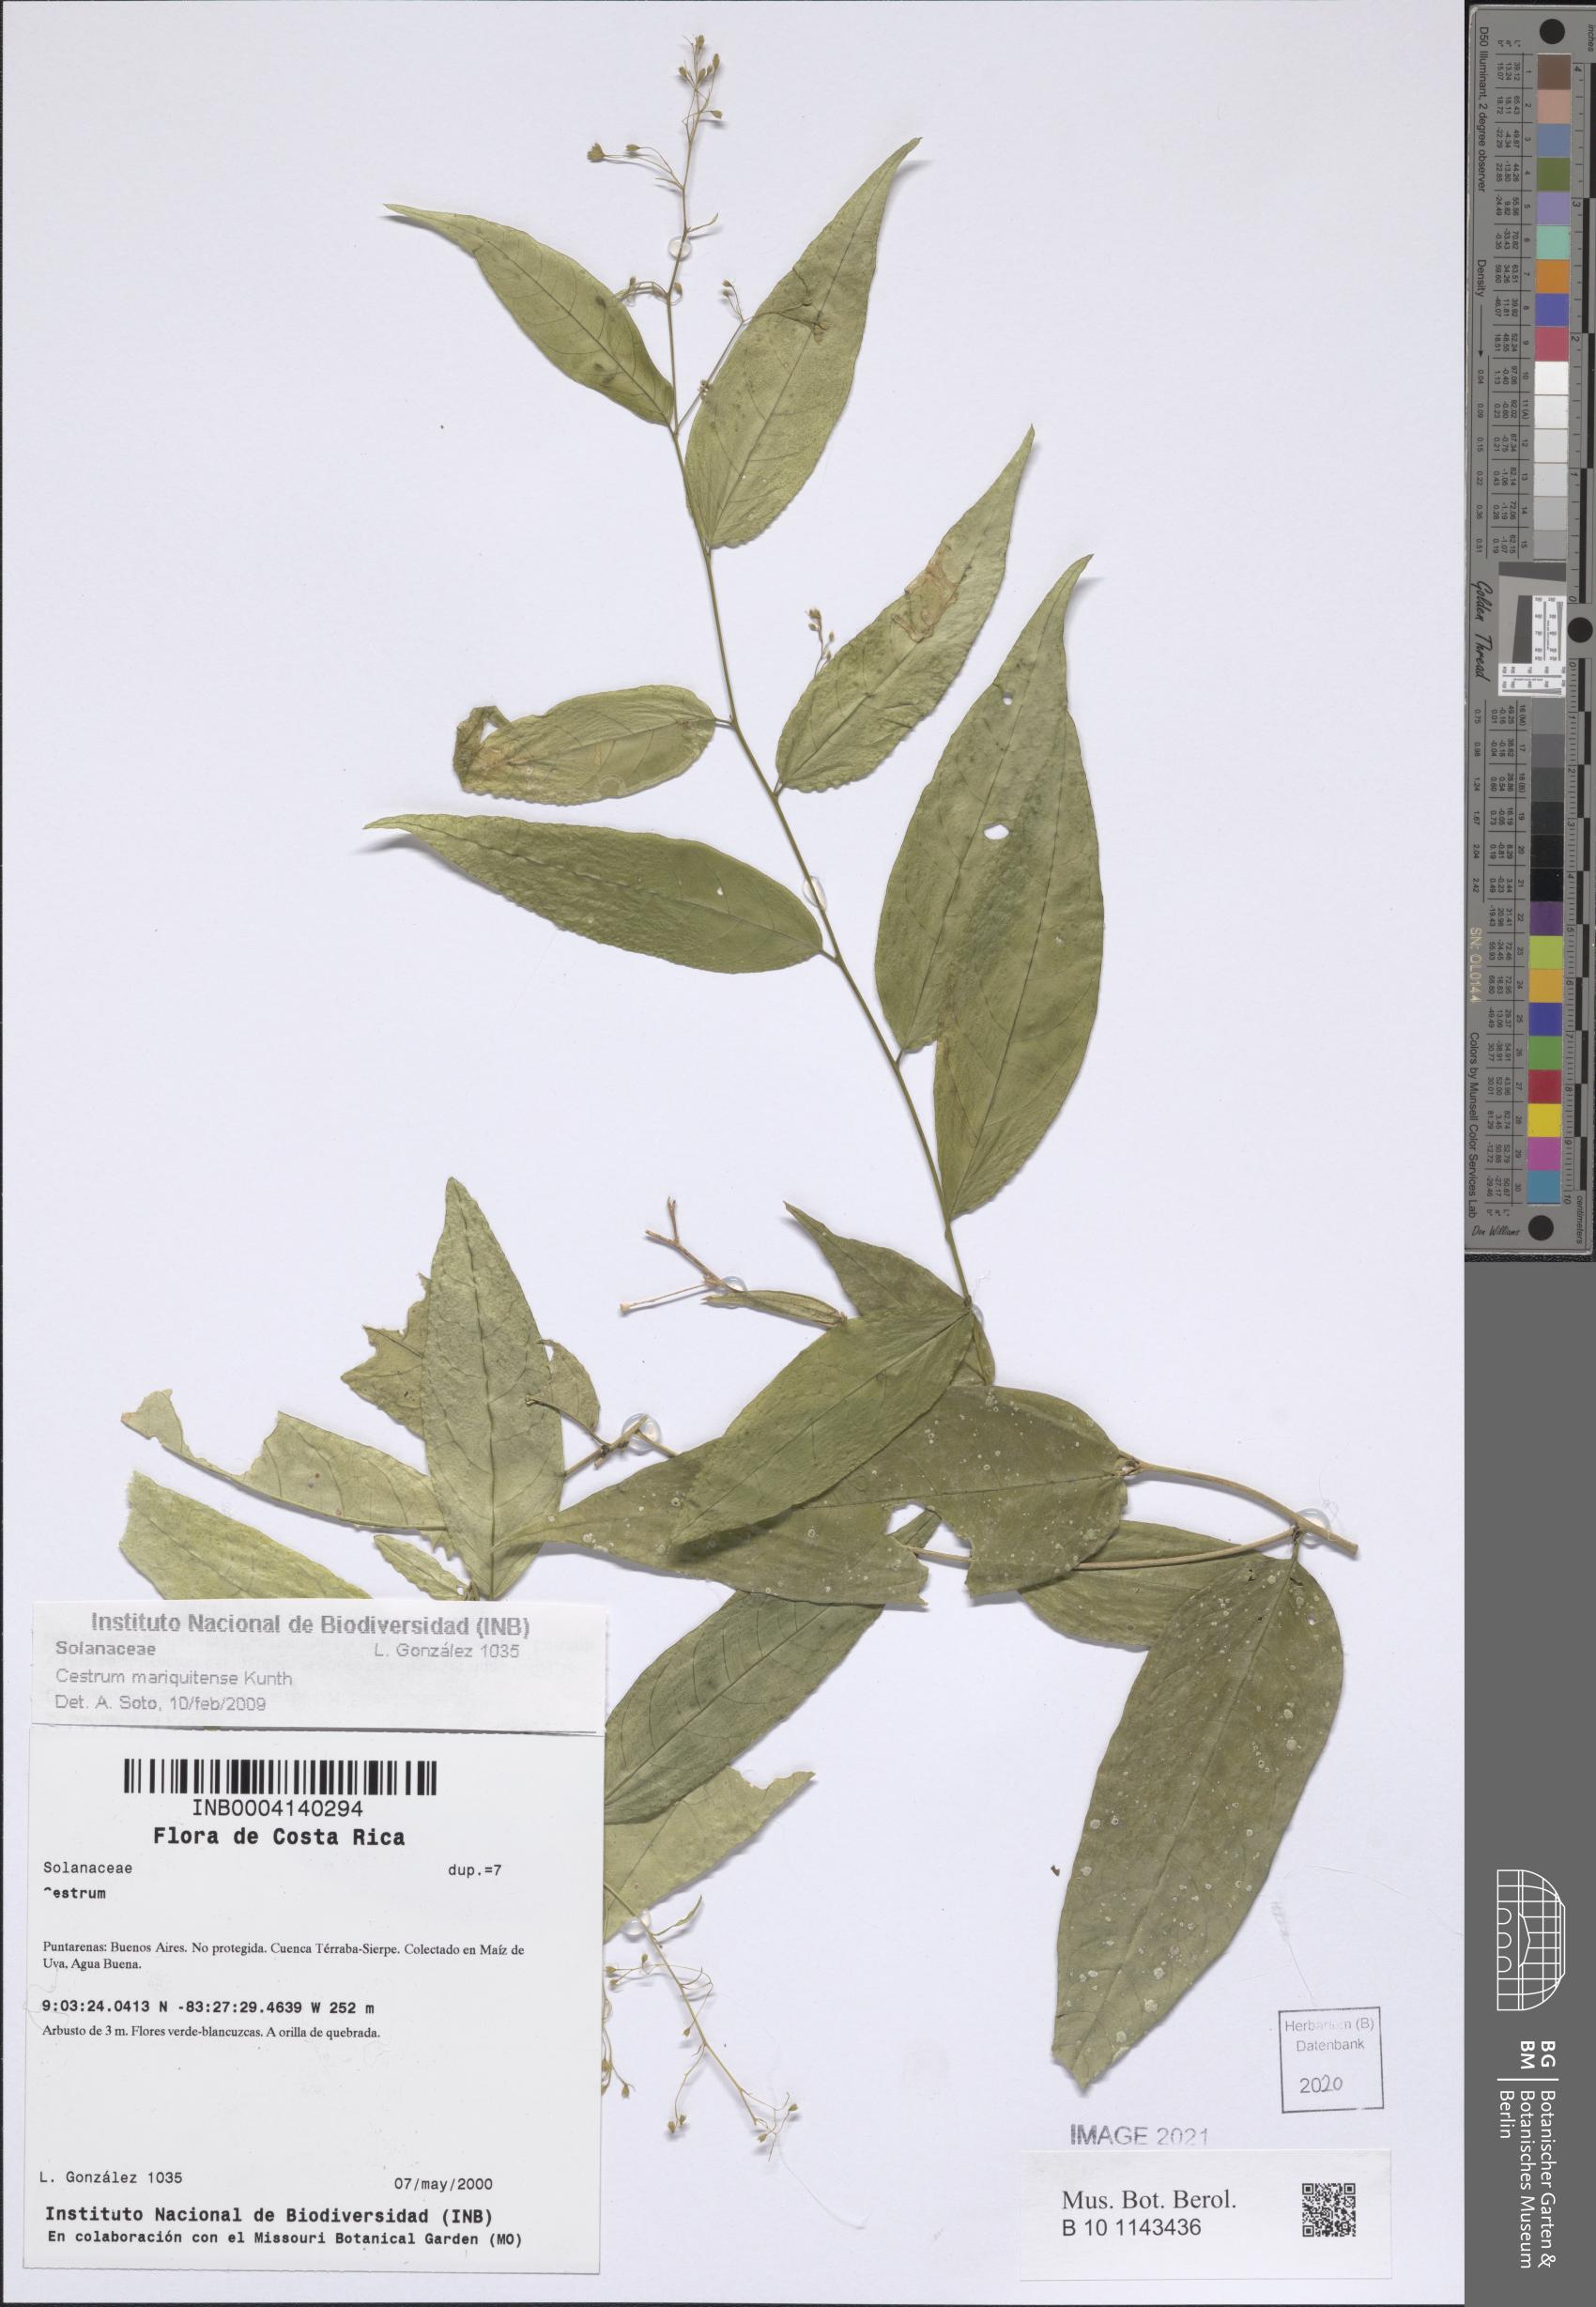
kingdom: Plantae
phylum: Tracheophyta
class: Magnoliopsida
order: Solanales
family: Solanaceae
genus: Cestrum
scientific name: Cestrum mariquitense
